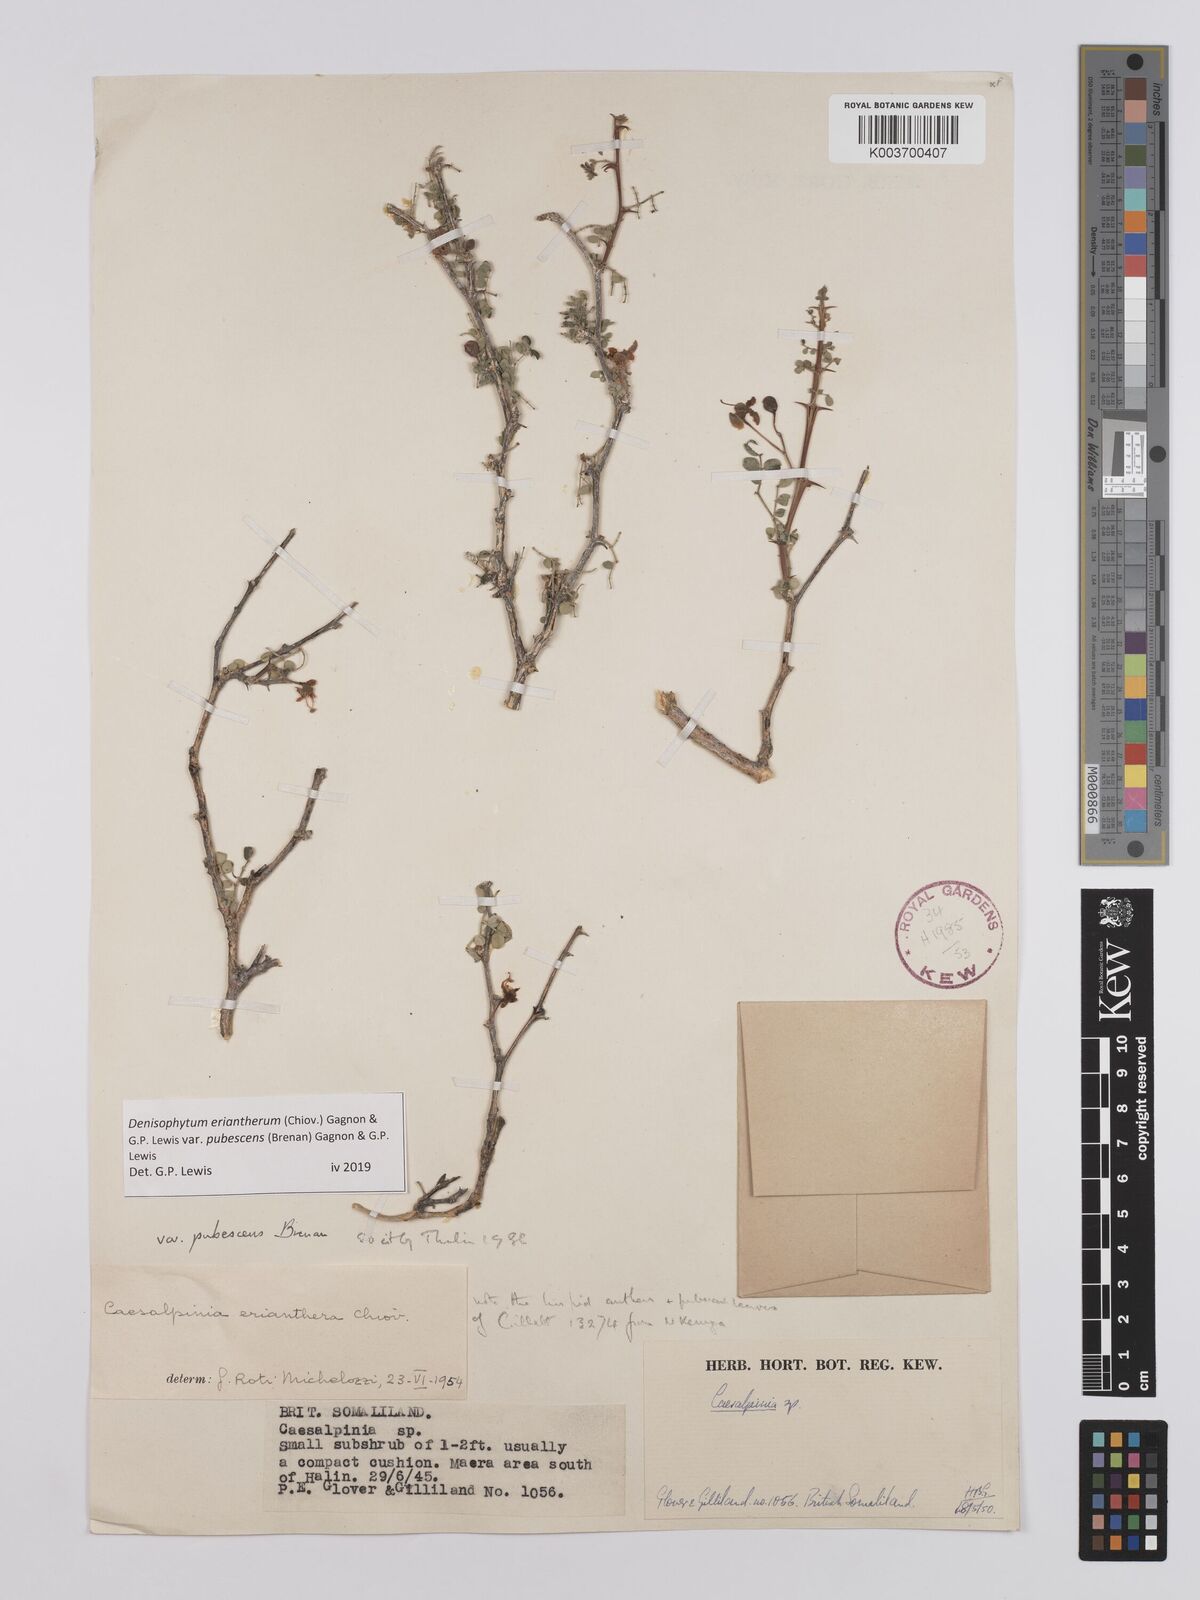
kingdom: Plantae
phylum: Tracheophyta
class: Magnoliopsida
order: Fabales
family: Fabaceae
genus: Denisophytum
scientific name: Denisophytum eriantherum
